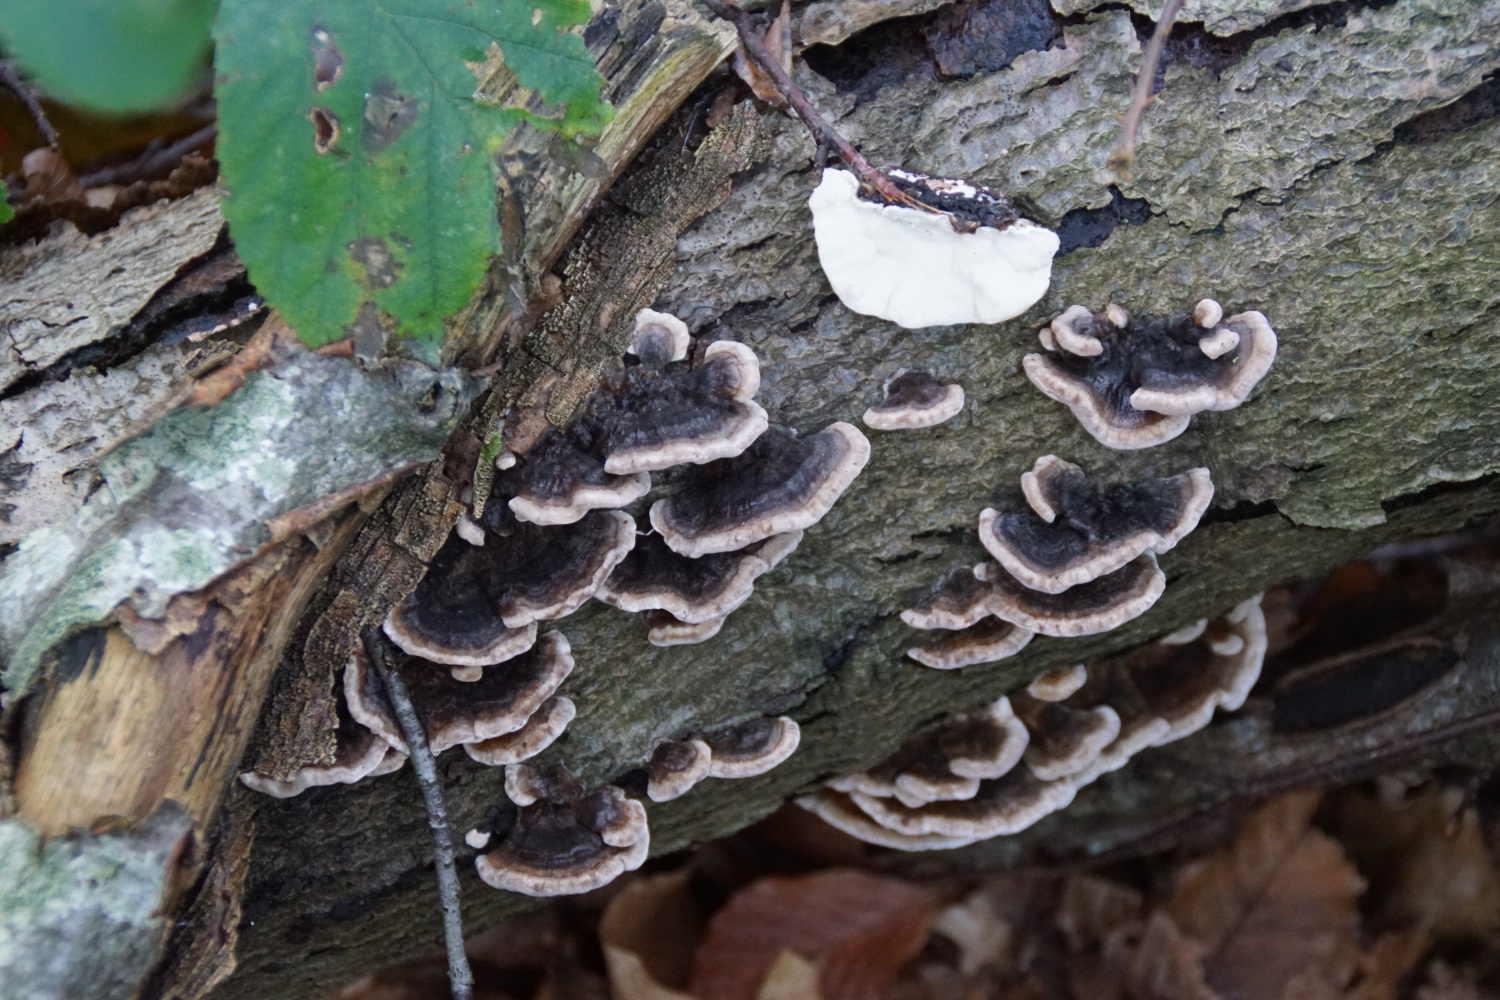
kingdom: Fungi
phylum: Basidiomycota
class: Agaricomycetes
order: Polyporales
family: Polyporaceae
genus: Trametes
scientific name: Trametes versicolor
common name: broget læderporesvamp
